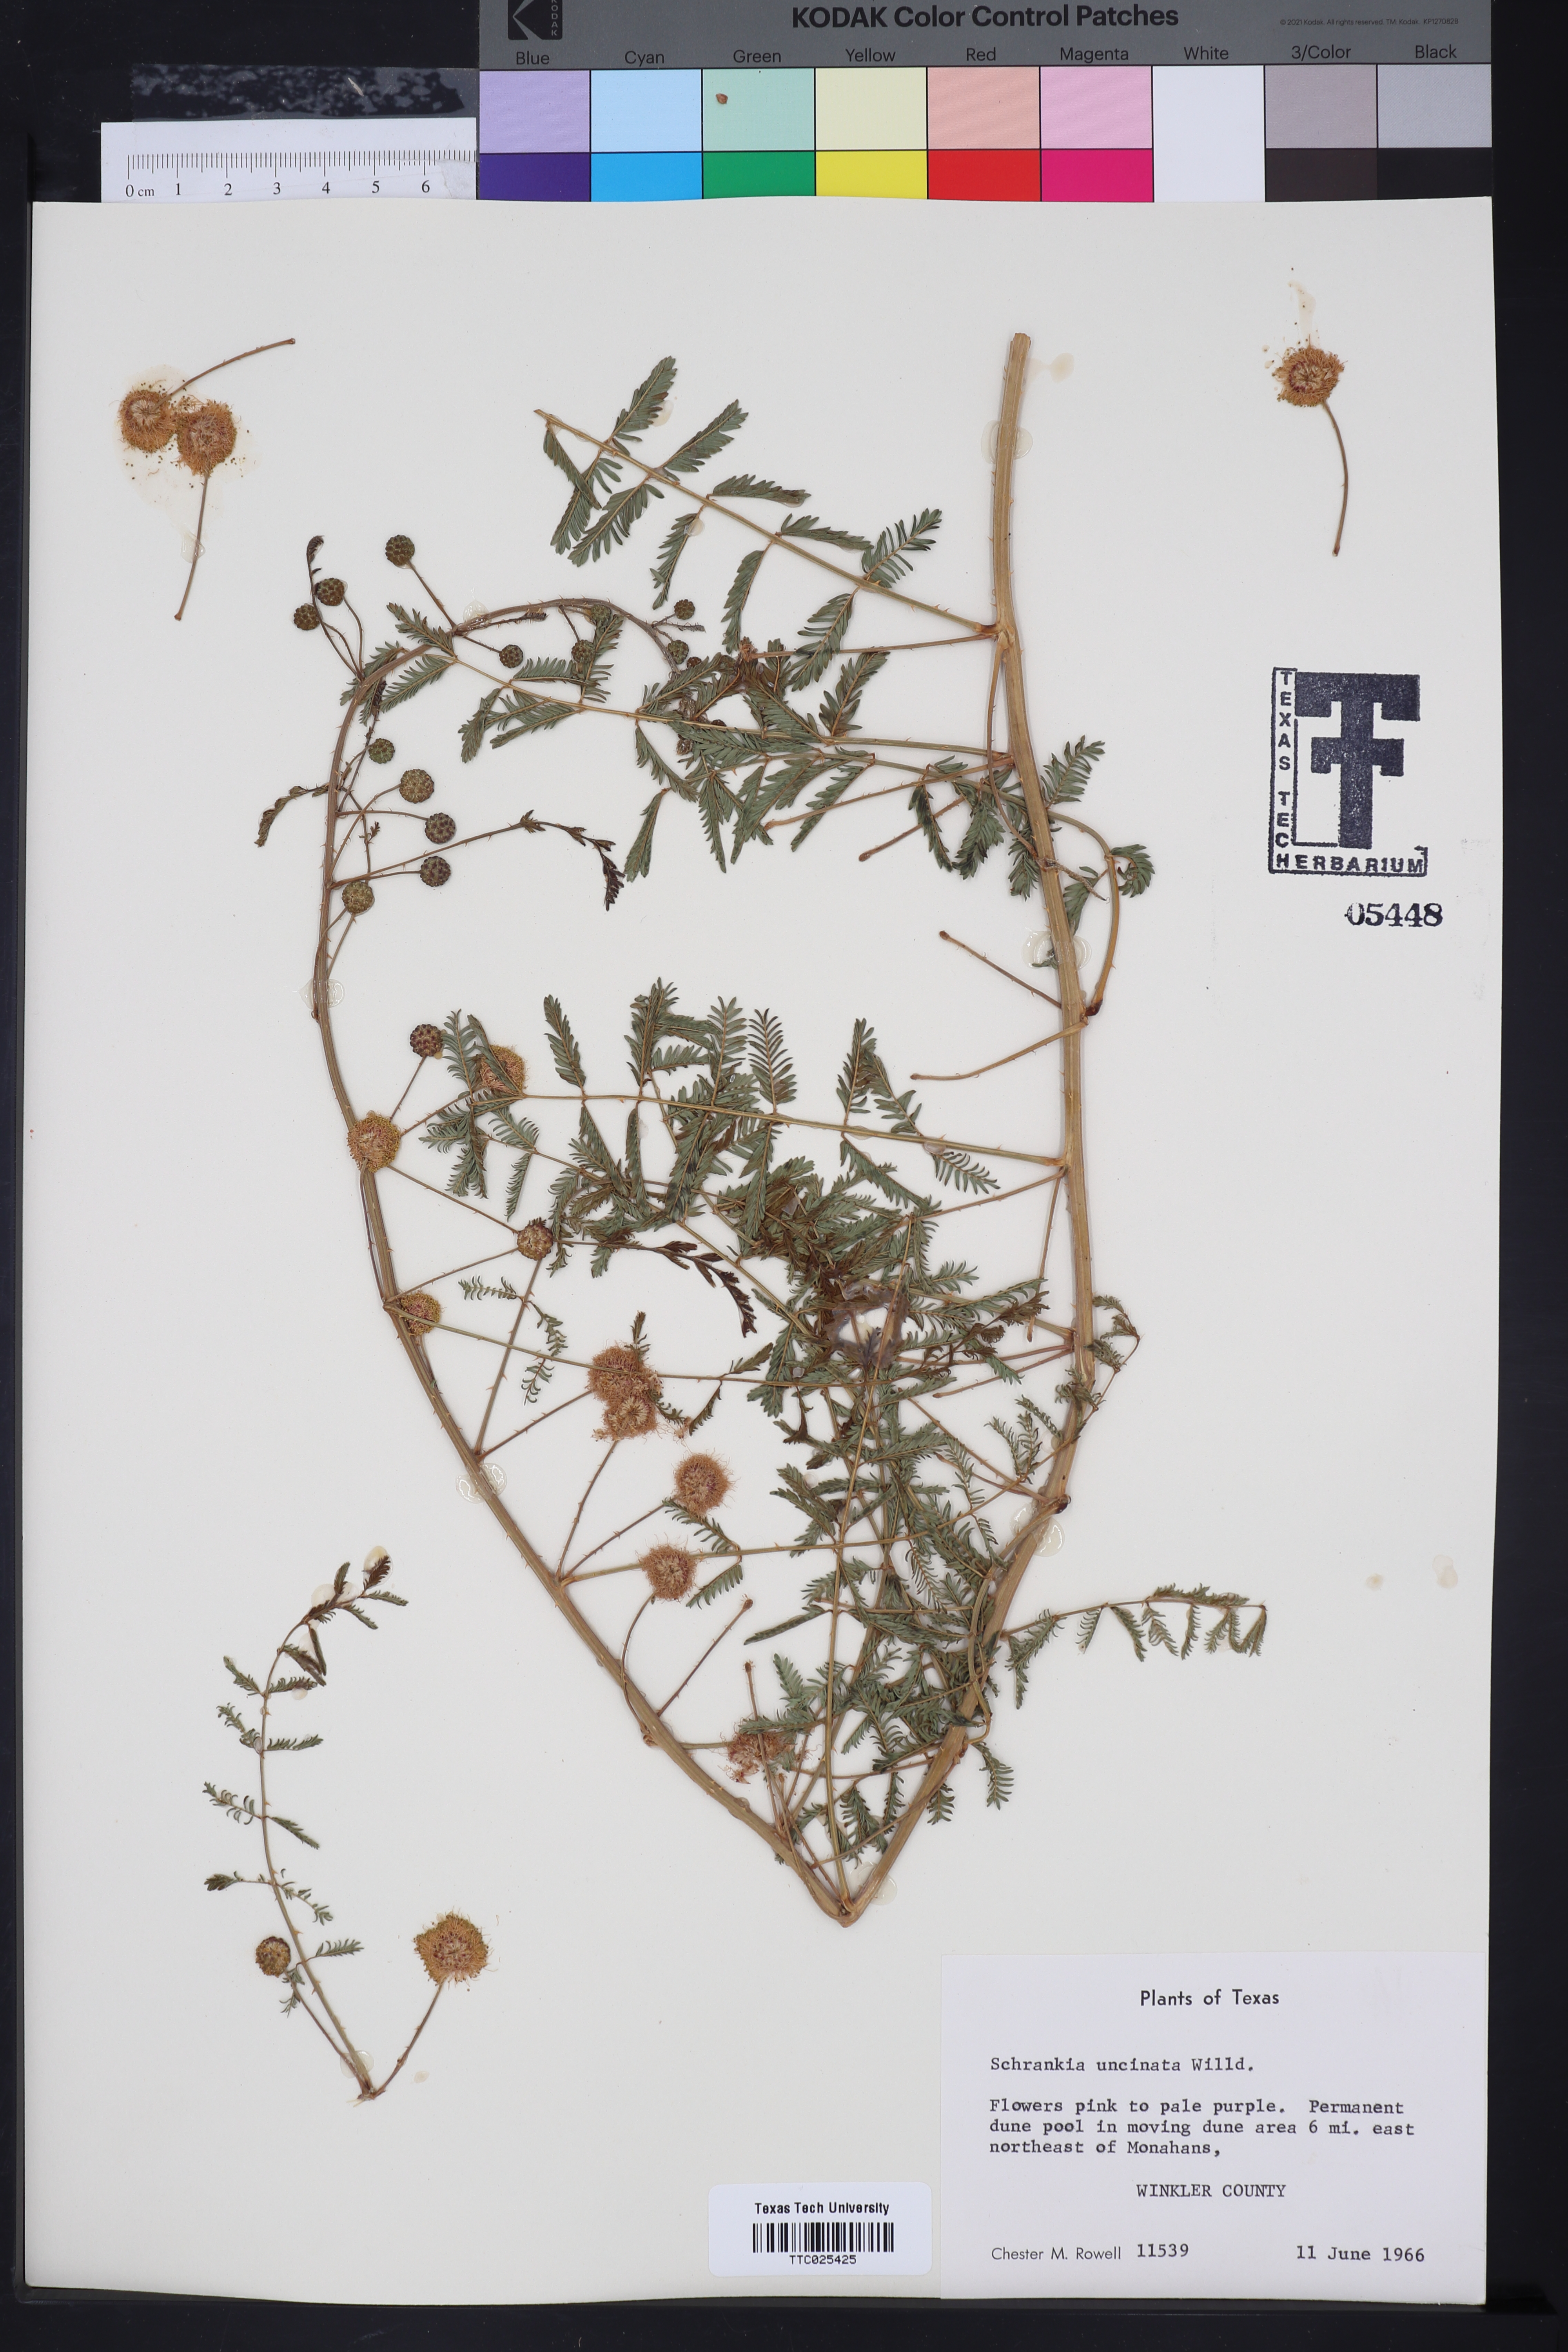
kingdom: Plantae
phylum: Tracheophyta
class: Magnoliopsida
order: Fabales
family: Fabaceae
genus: Mimosa
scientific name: Mimosa quadrivalvis
